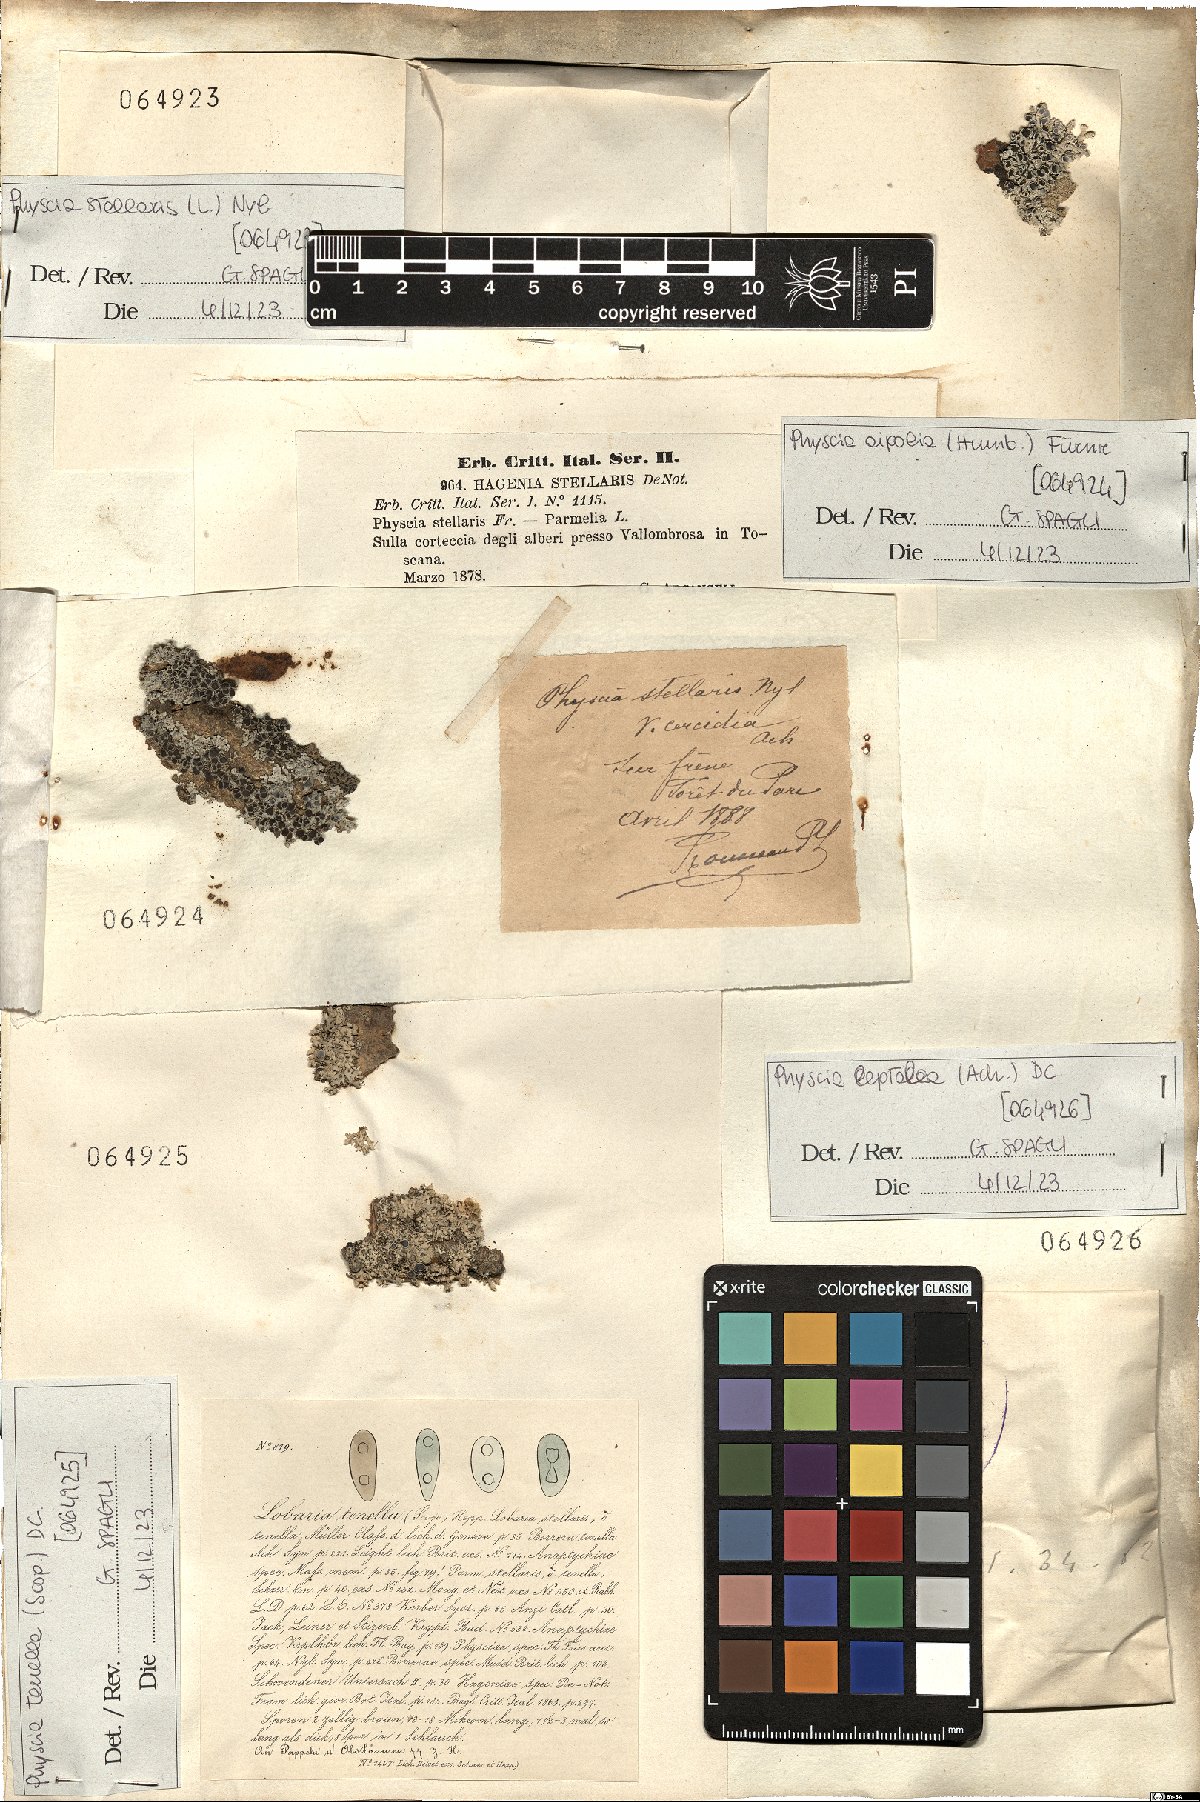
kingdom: Fungi
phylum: Ascomycota
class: Lecanoromycetes
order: Caliciales
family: Physciaceae
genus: Physcia
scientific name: Physcia aipolia
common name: Hoary rosette lichen
